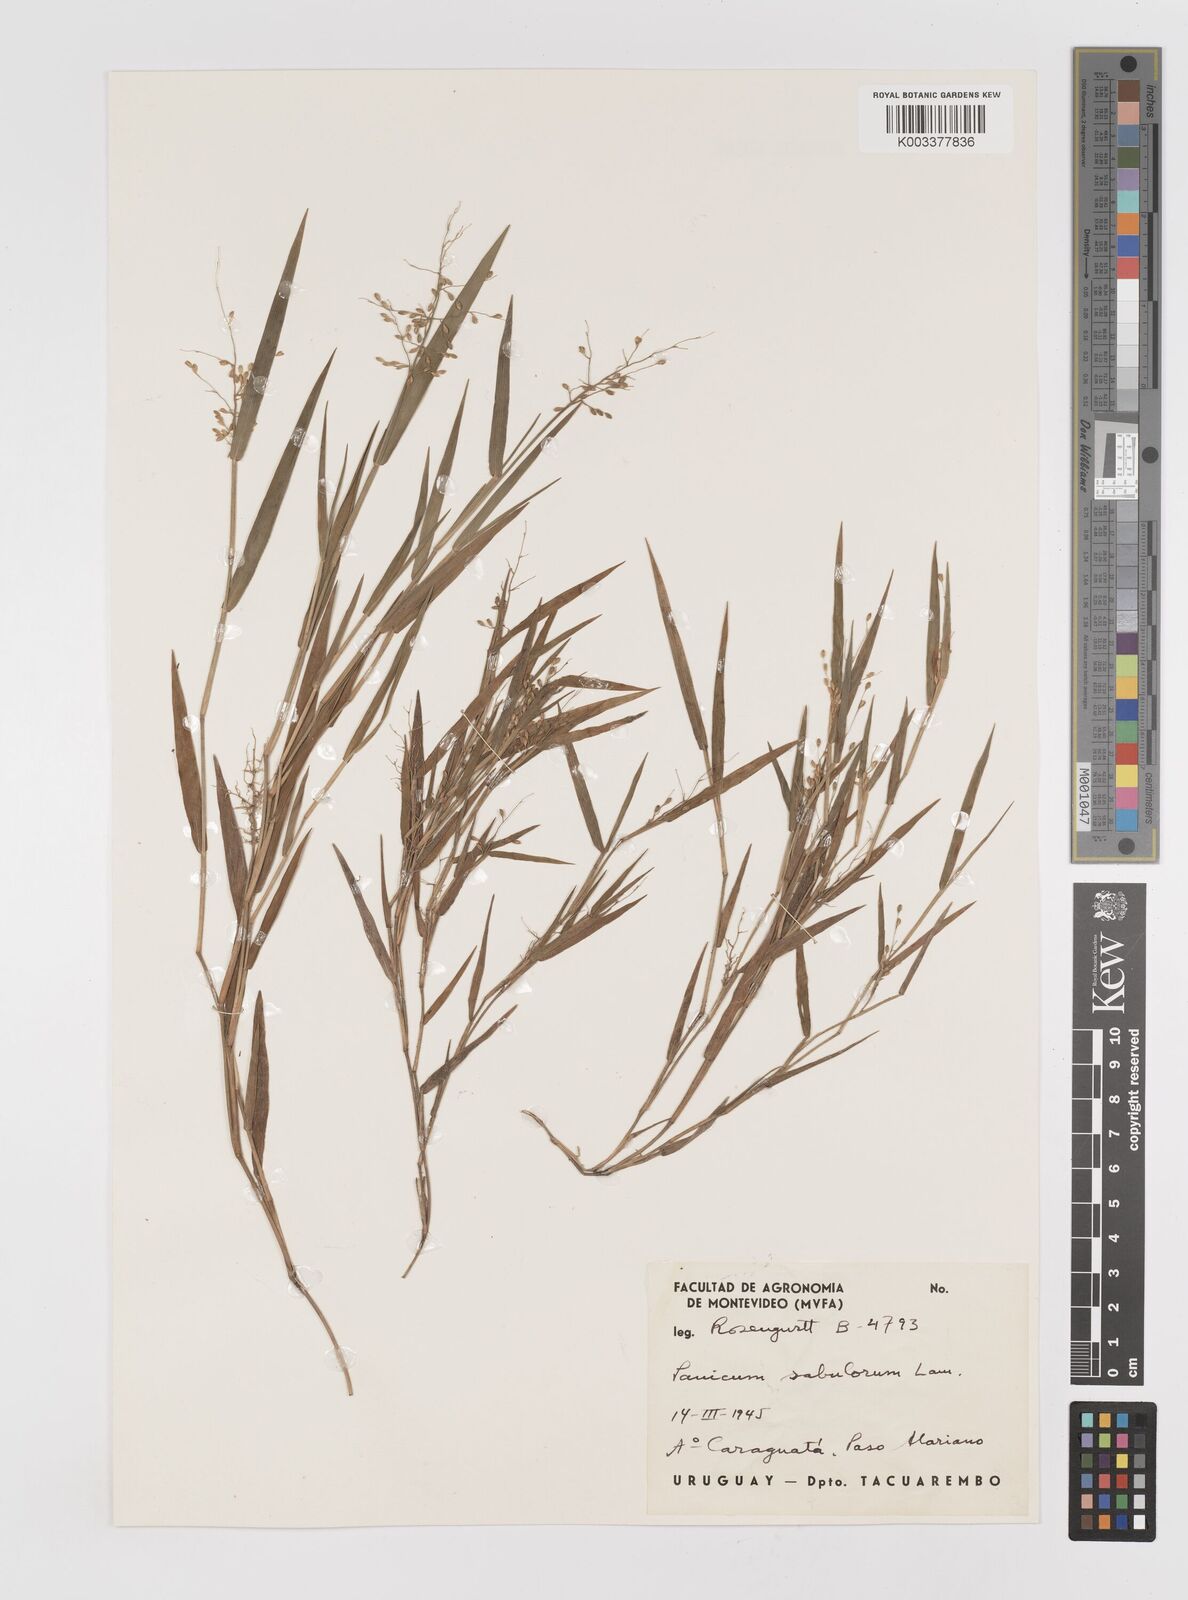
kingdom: Plantae
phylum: Tracheophyta
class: Liliopsida
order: Poales
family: Poaceae
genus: Dichanthelium
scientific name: Dichanthelium sabulorum
